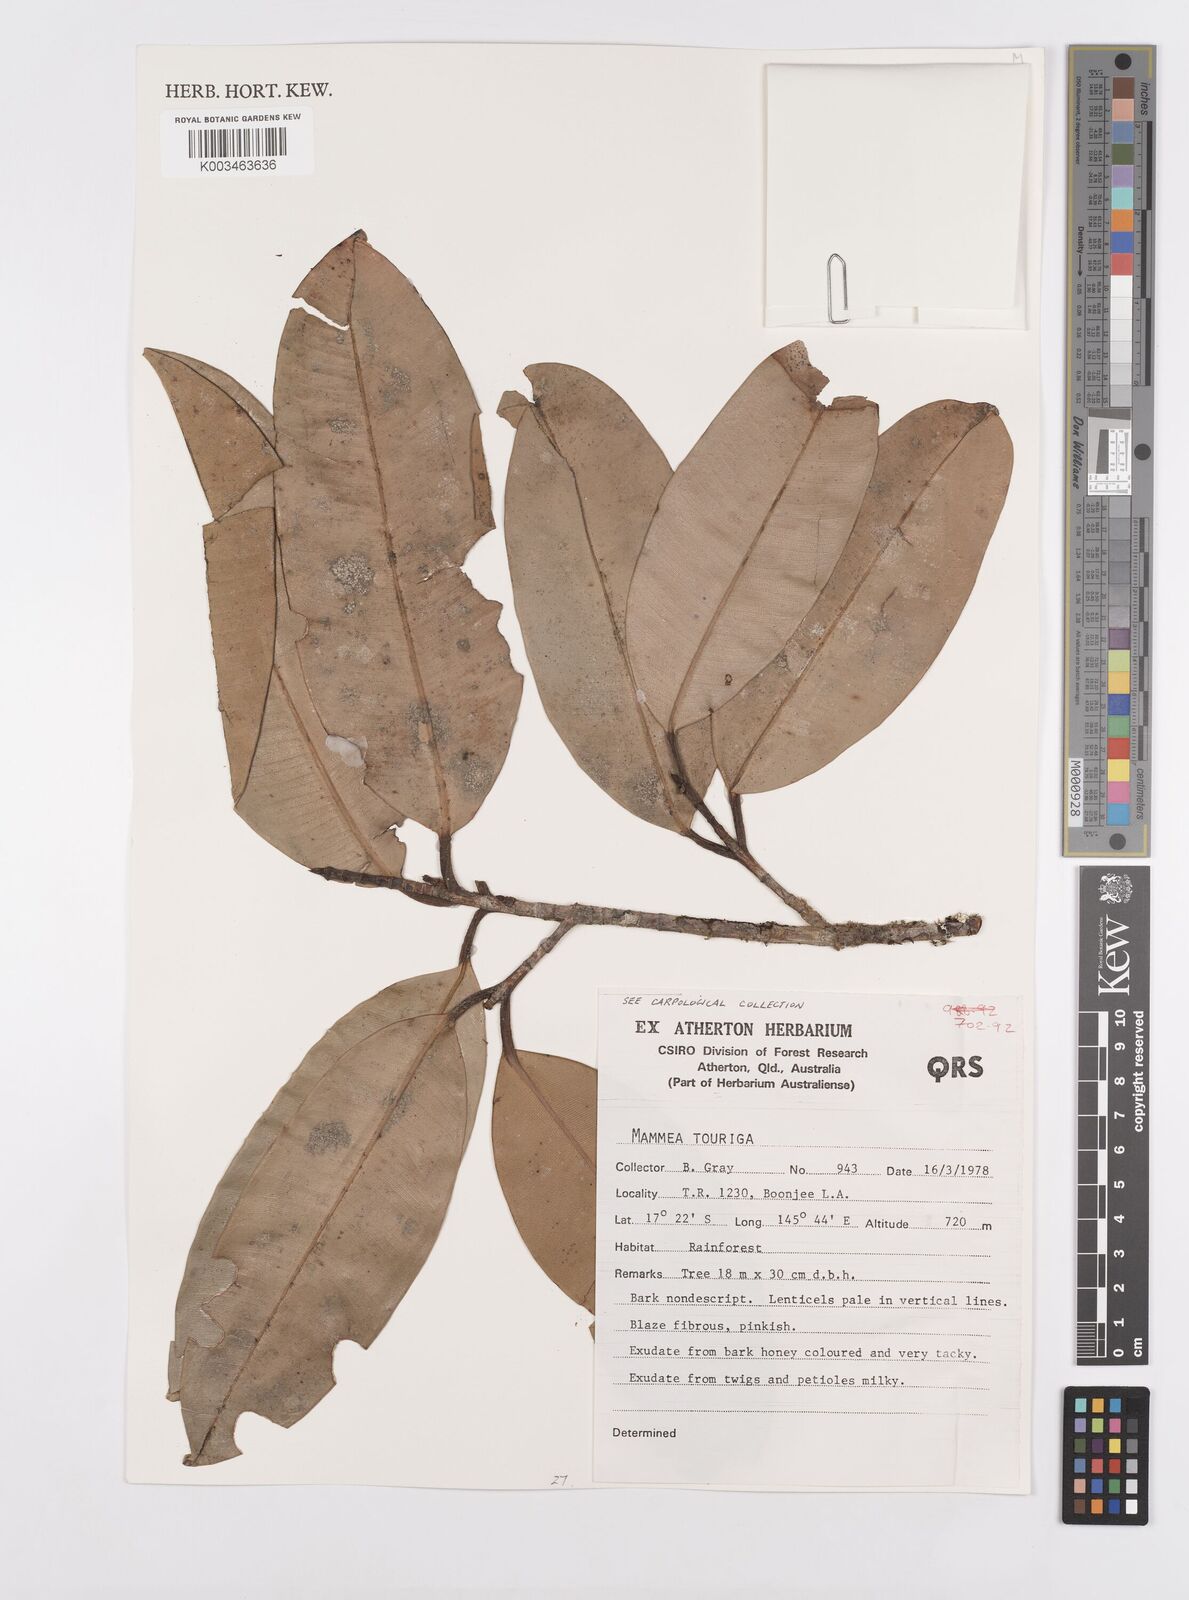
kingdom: Plantae
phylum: Tracheophyta
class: Magnoliopsida
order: Malpighiales
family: Calophyllaceae
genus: Mammea
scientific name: Mammea touriga
